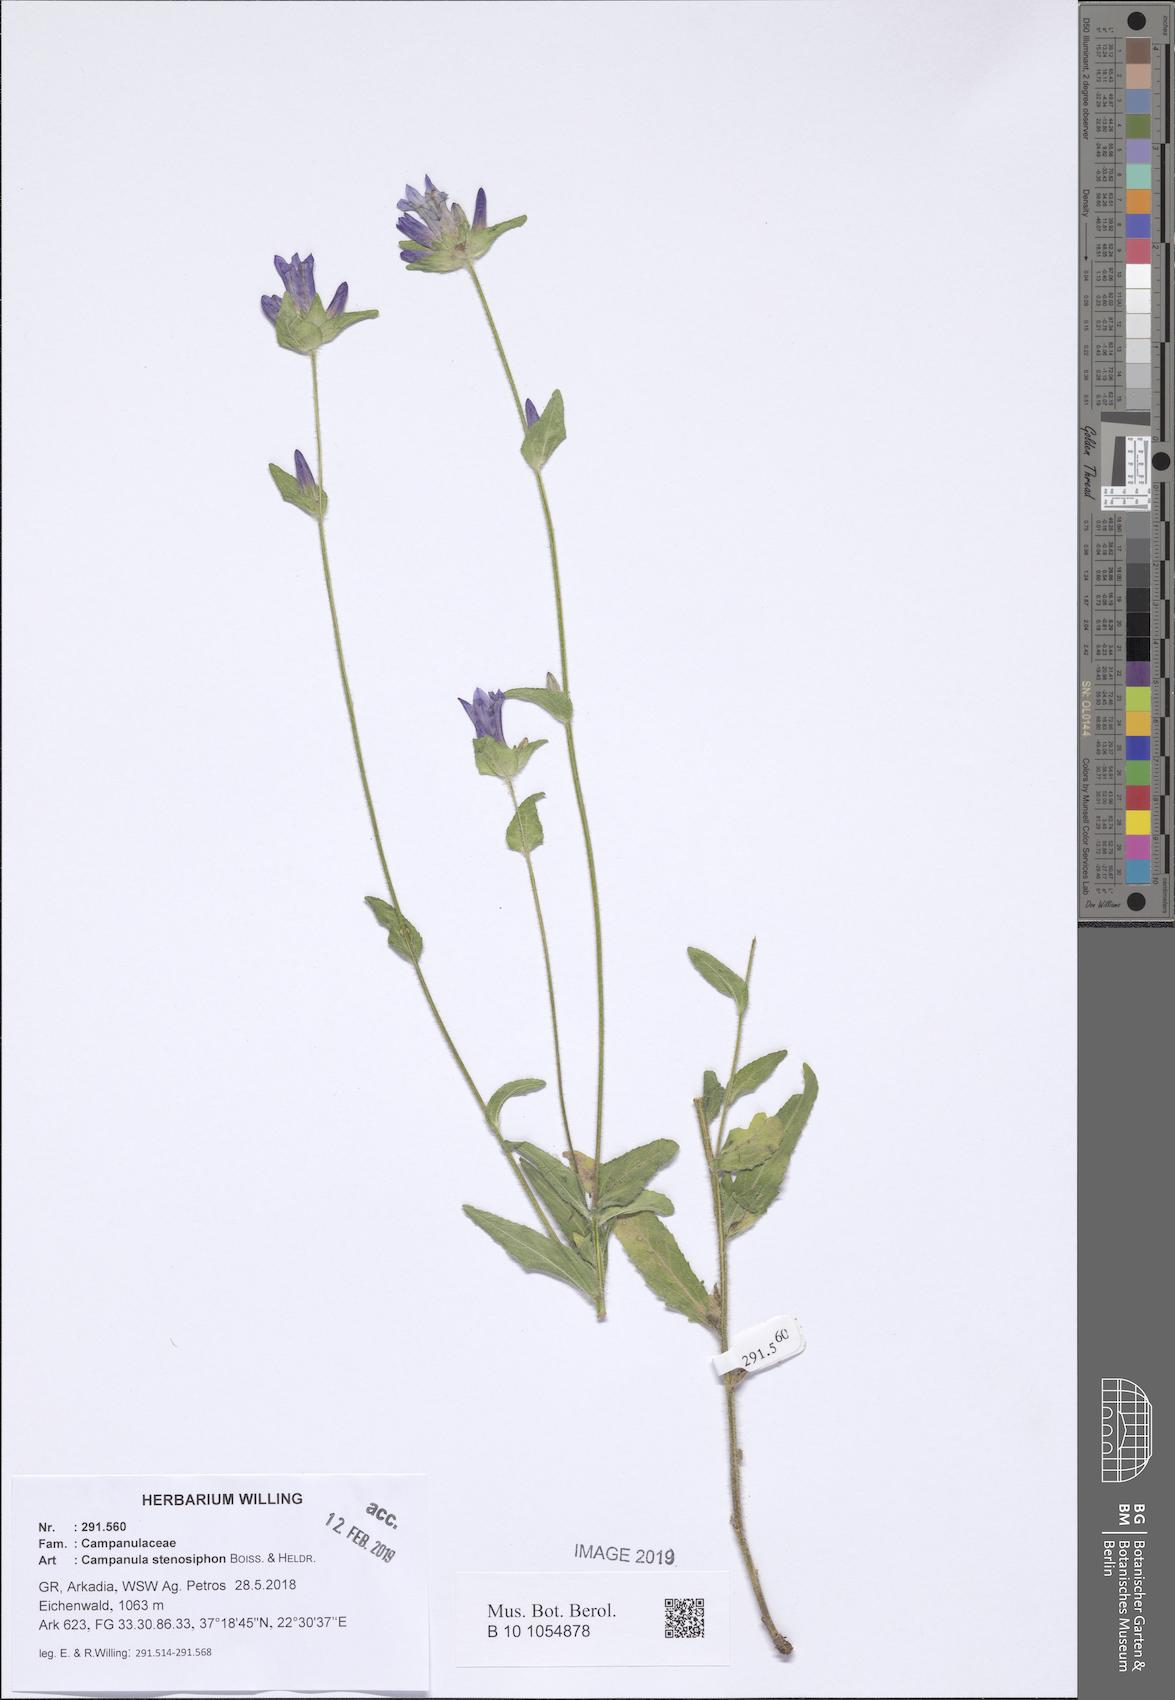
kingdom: Plantae
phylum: Tracheophyta
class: Magnoliopsida
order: Asterales
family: Campanulaceae
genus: Campanula
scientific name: Campanula stenosiphon
